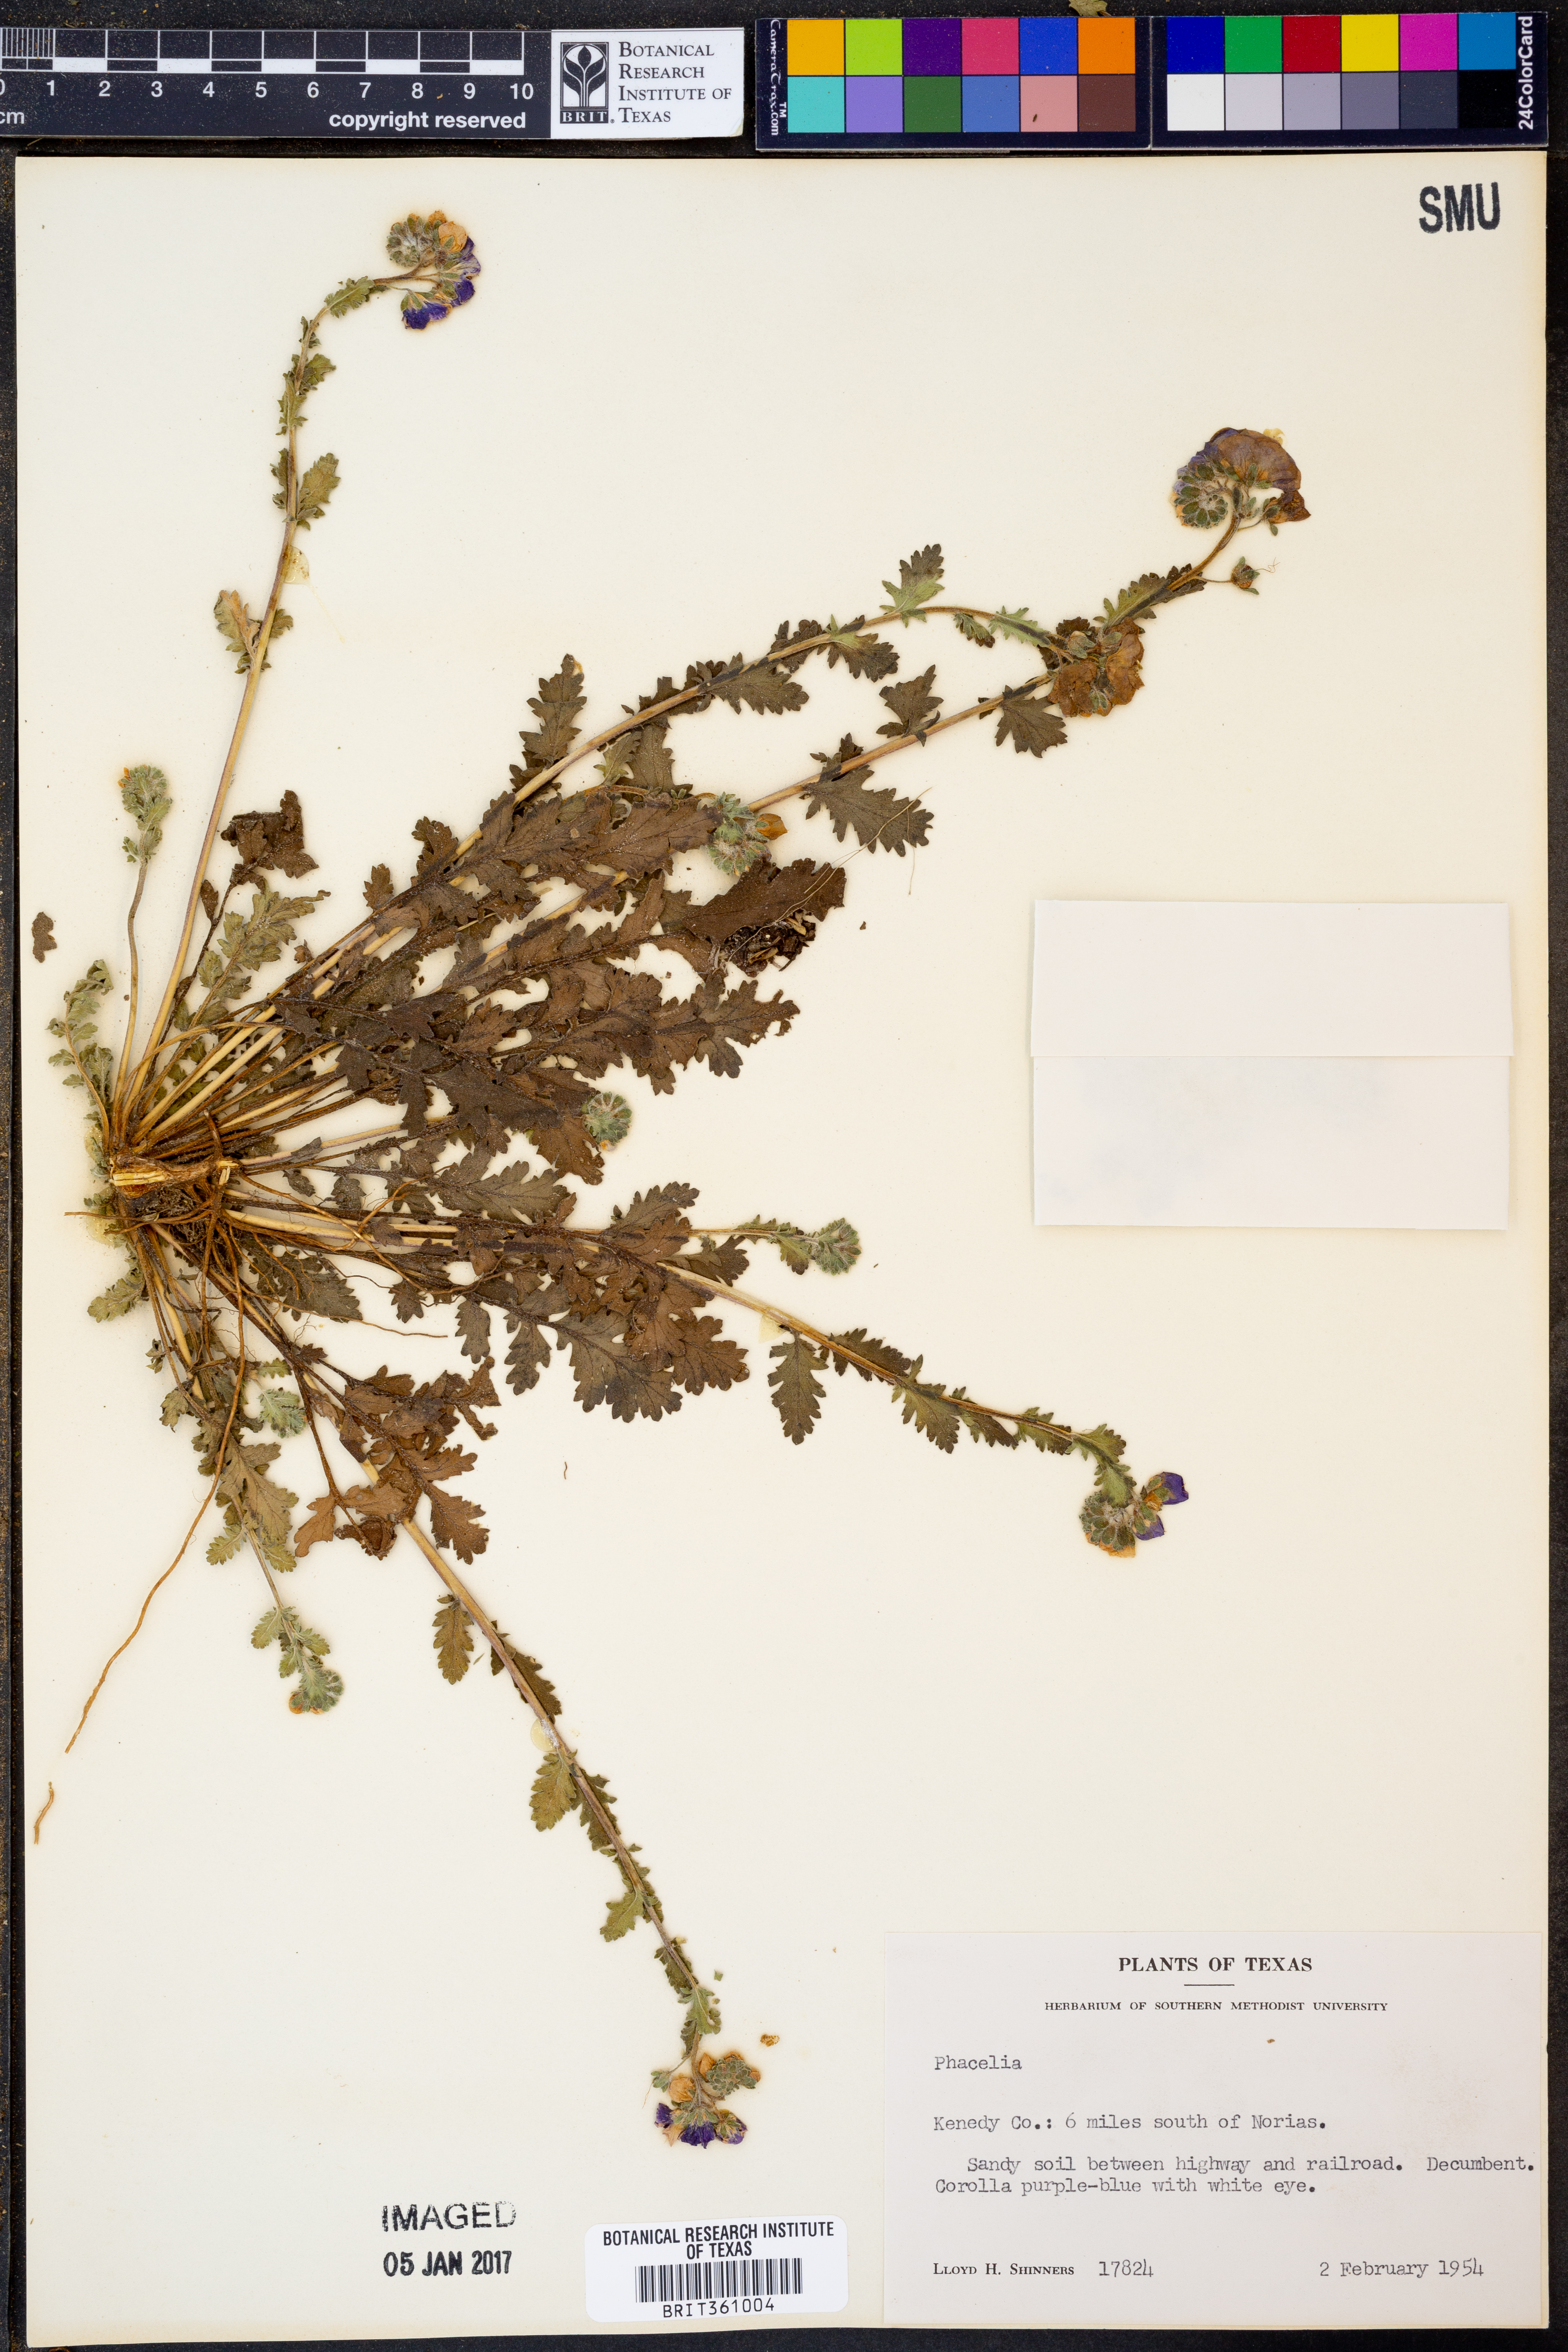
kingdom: Plantae
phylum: Tracheophyta
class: Magnoliopsida
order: Boraginales
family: Hydrophyllaceae
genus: Phacelia
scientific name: Phacelia
